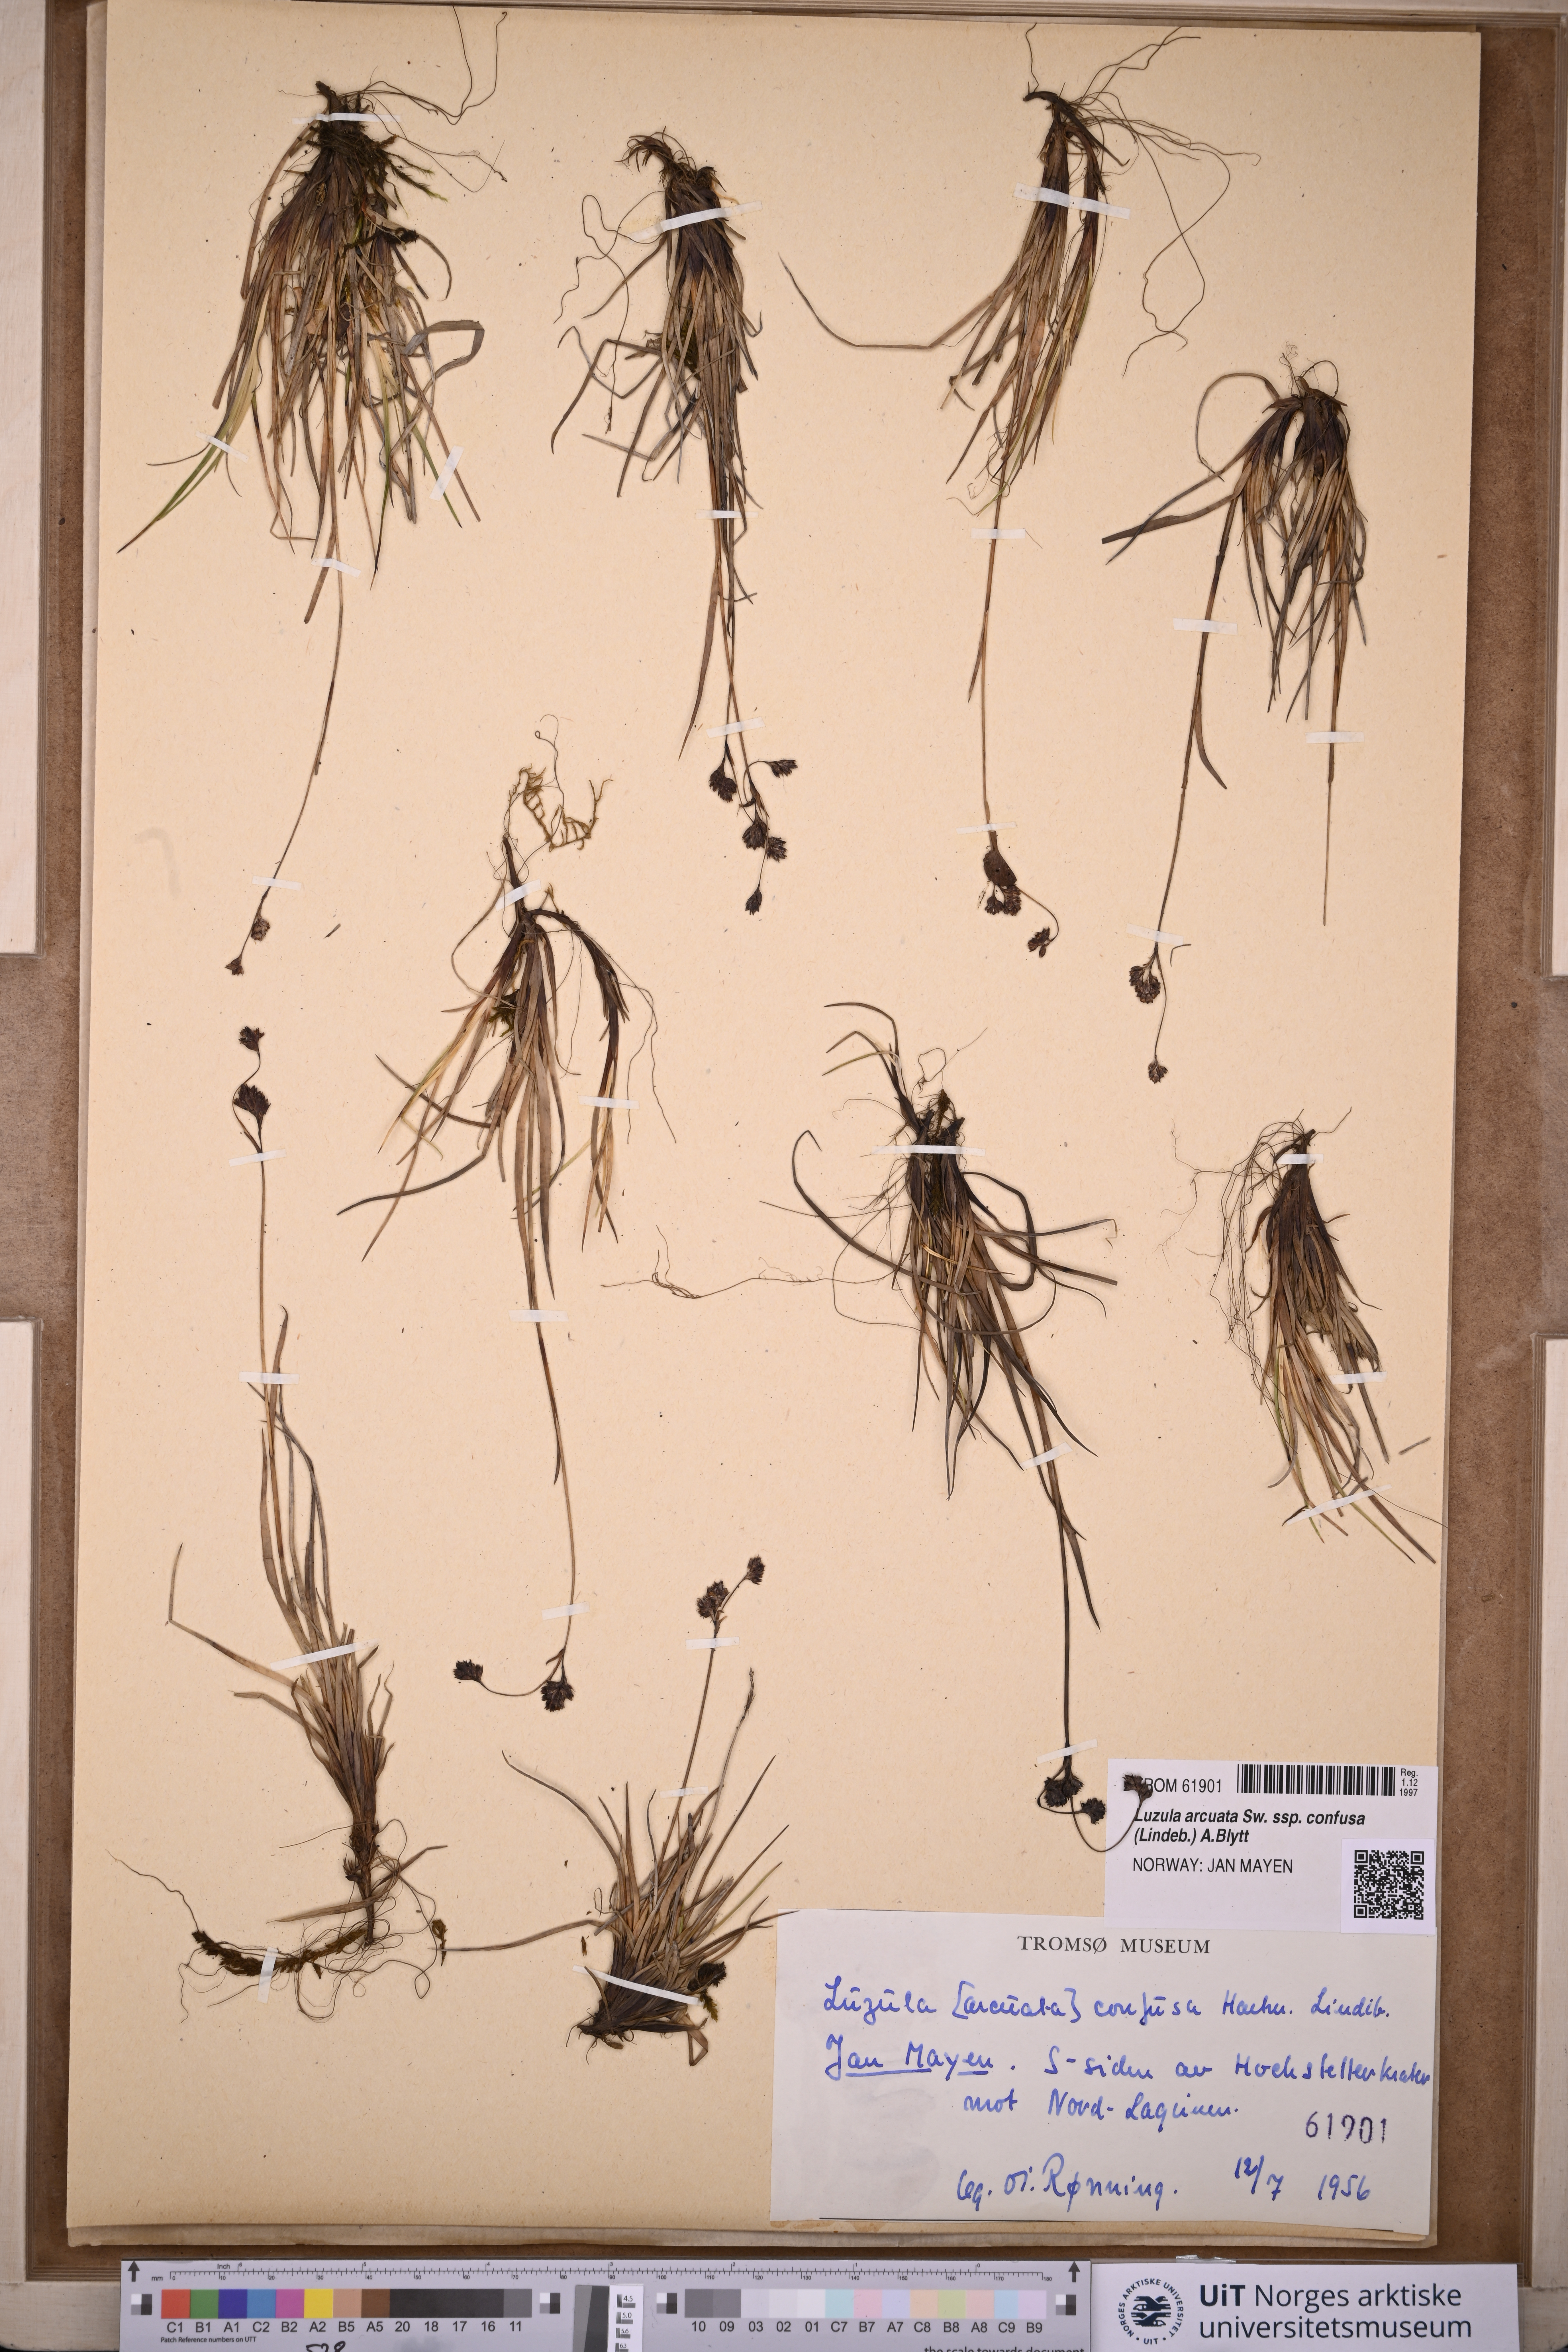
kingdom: Plantae
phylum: Tracheophyta
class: Liliopsida
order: Poales
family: Juncaceae
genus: Luzula
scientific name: Luzula confusa
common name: Northern wood rush
